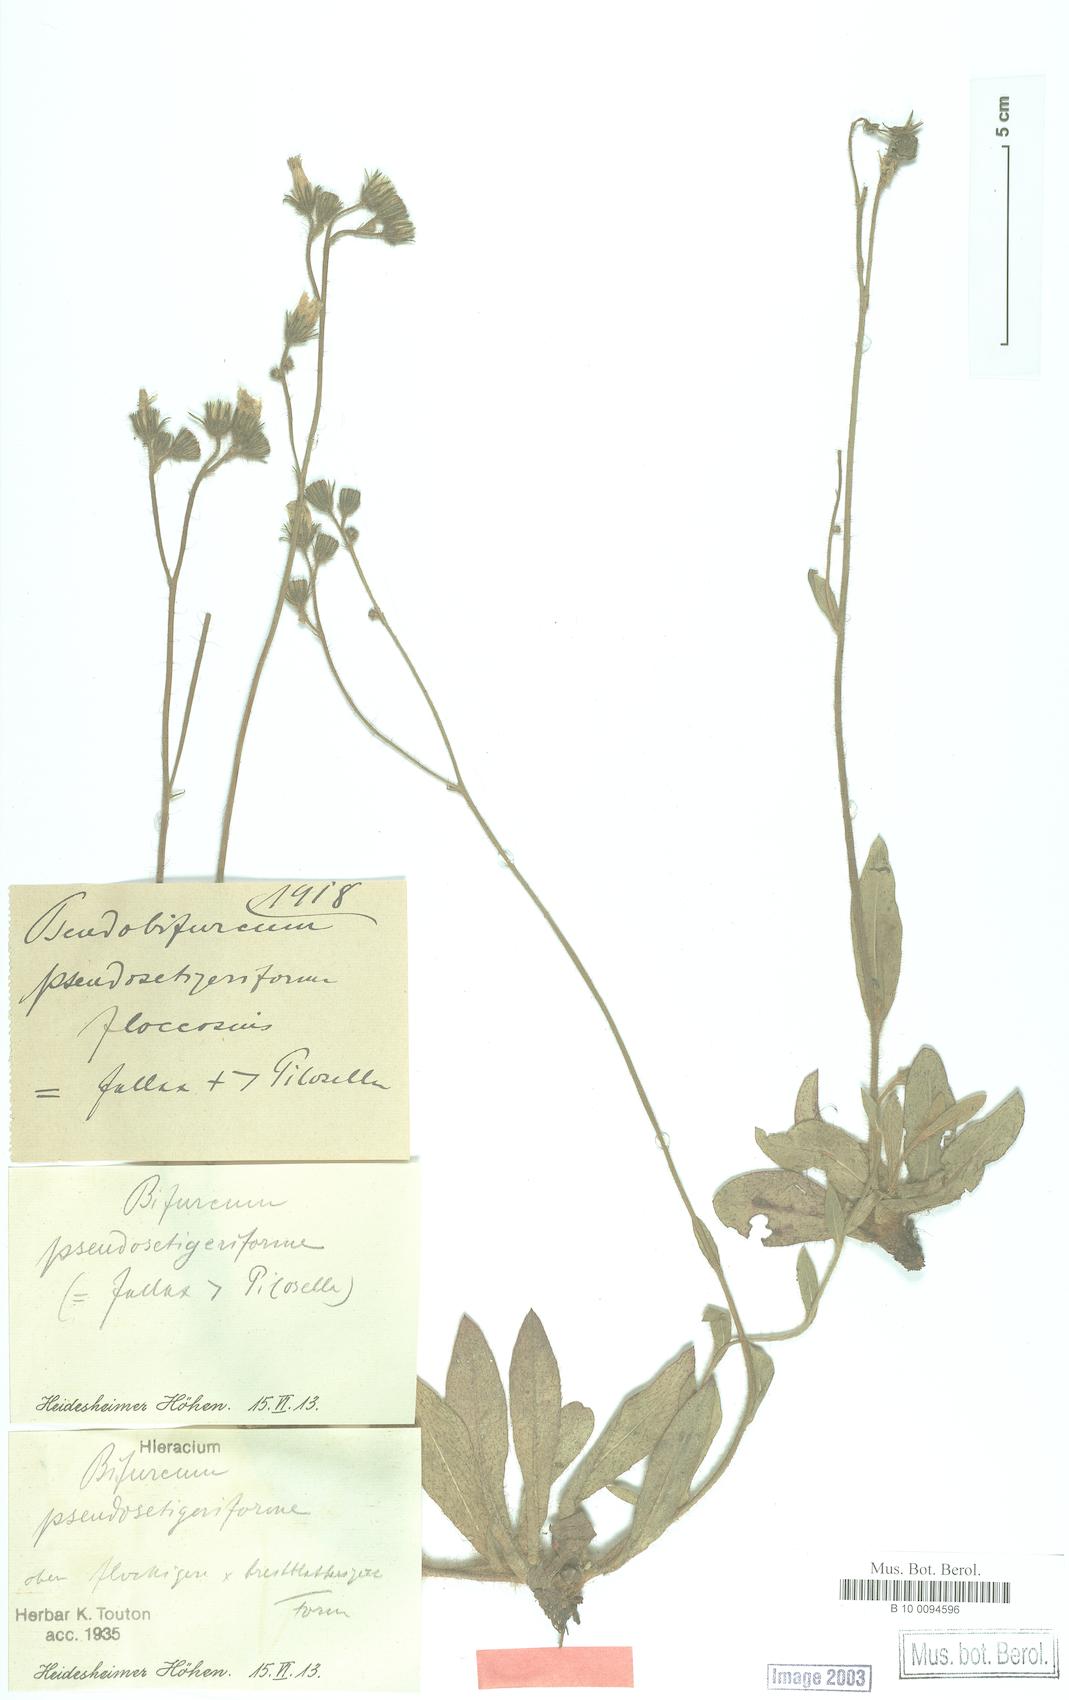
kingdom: Plantae
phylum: Tracheophyta
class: Magnoliopsida
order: Asterales
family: Asteraceae
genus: Pilosella
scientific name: Pilosella cinereiformis
